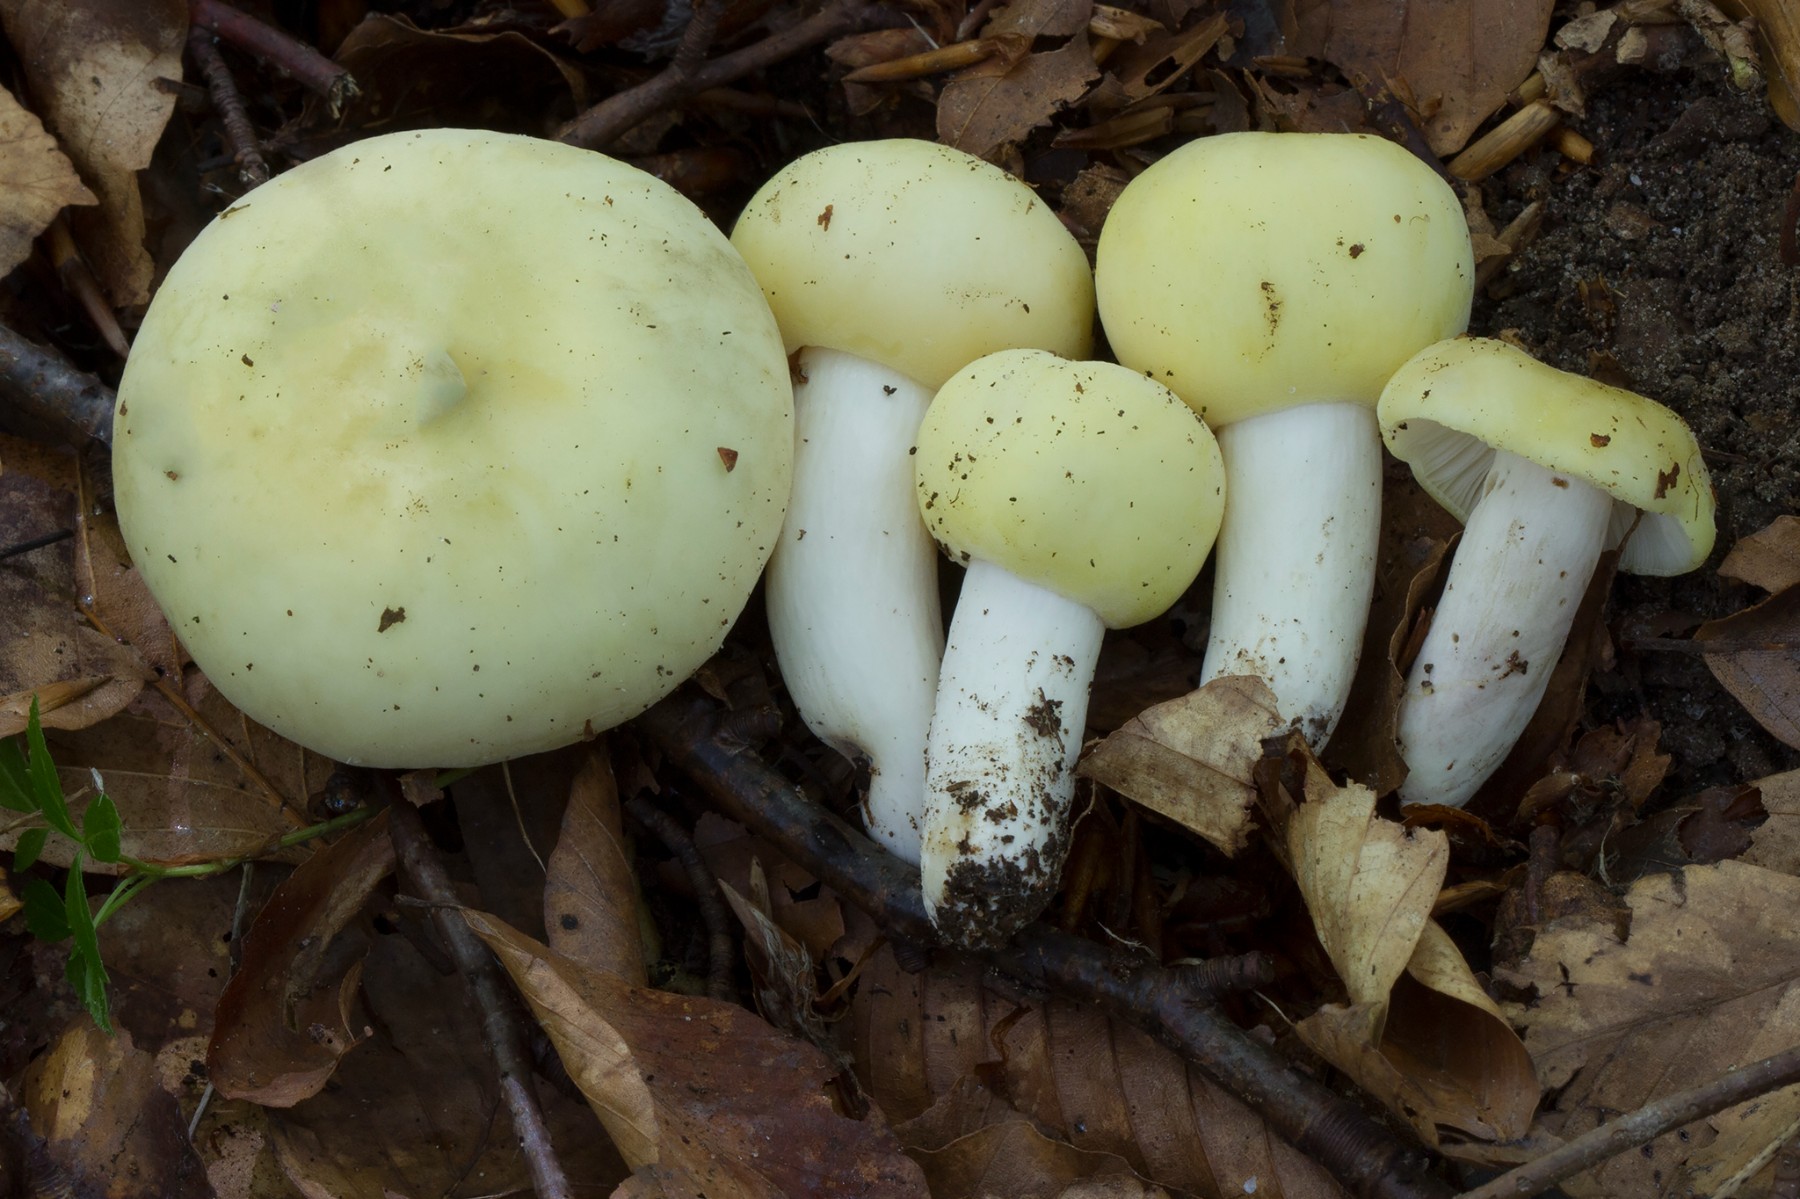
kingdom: Fungi
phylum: Basidiomycota
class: Agaricomycetes
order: Russulales
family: Russulaceae
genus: Russula
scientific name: Russula violeipes
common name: ferskengul skørhat
